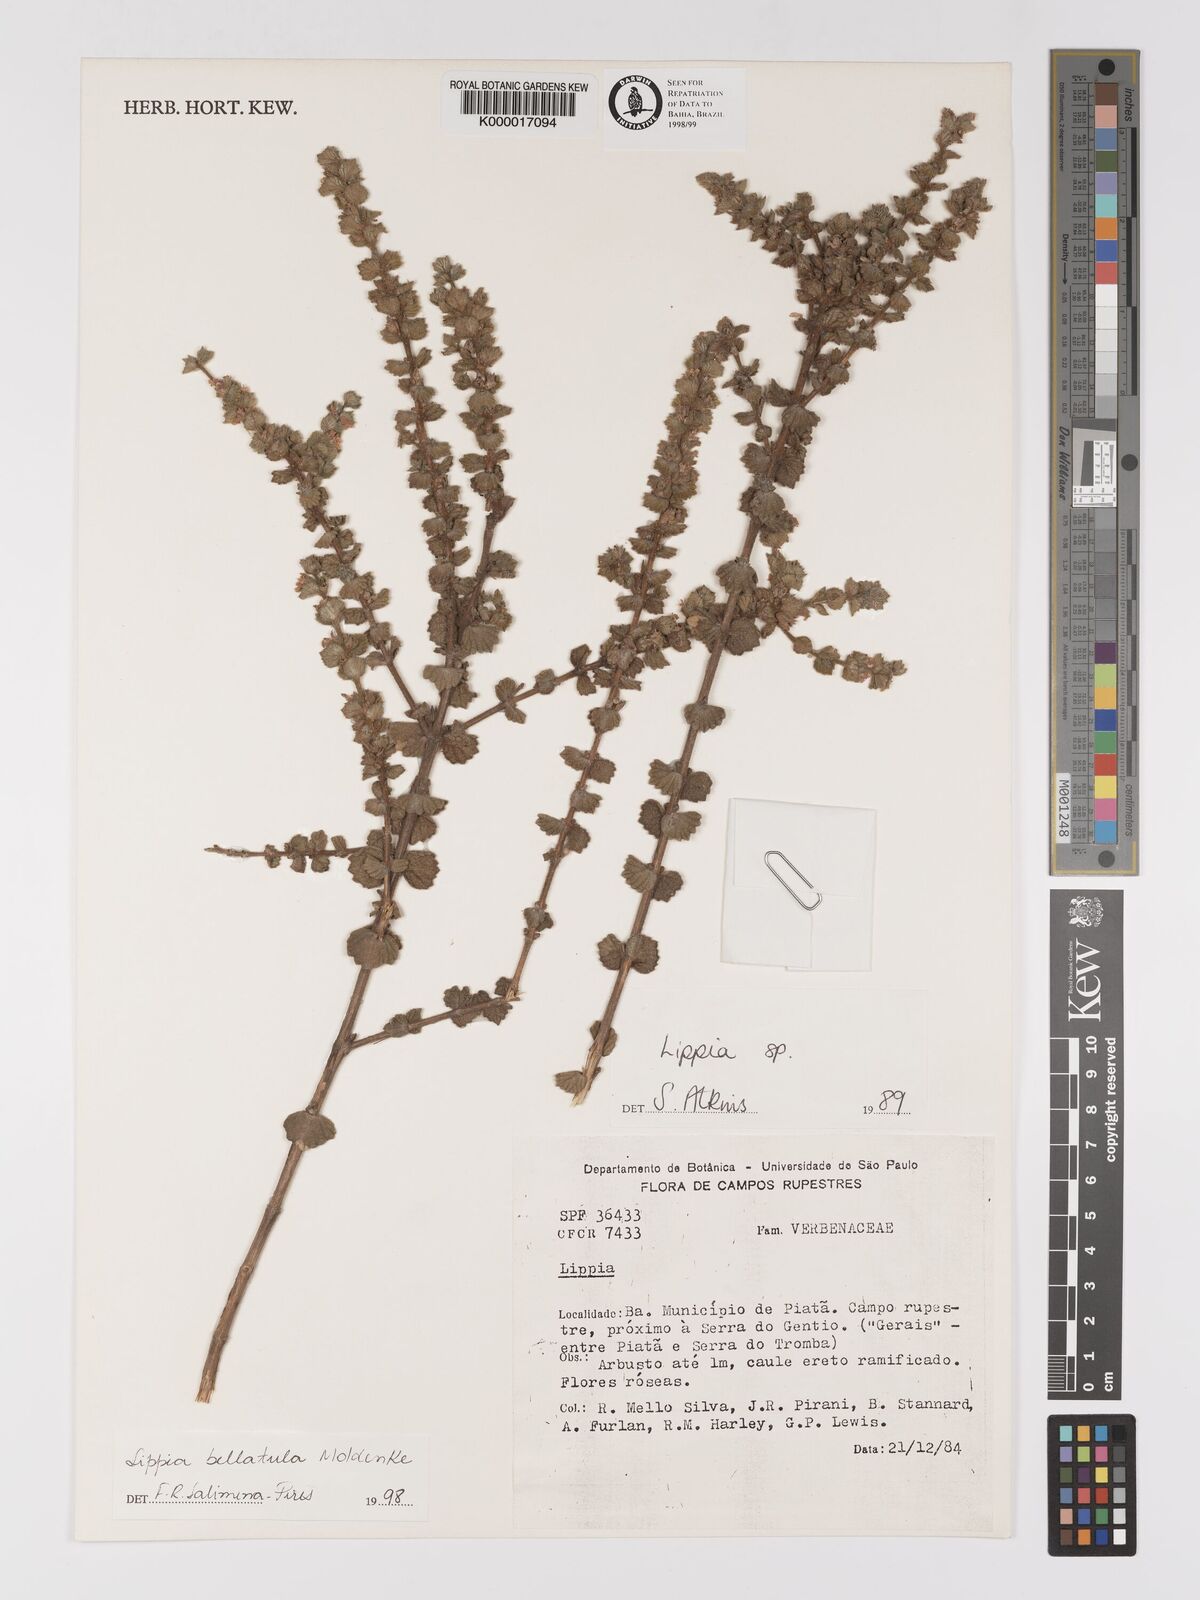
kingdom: Plantae
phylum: Tracheophyta
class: Magnoliopsida
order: Lamiales
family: Verbenaceae
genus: Lippia
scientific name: Lippia bellatula
